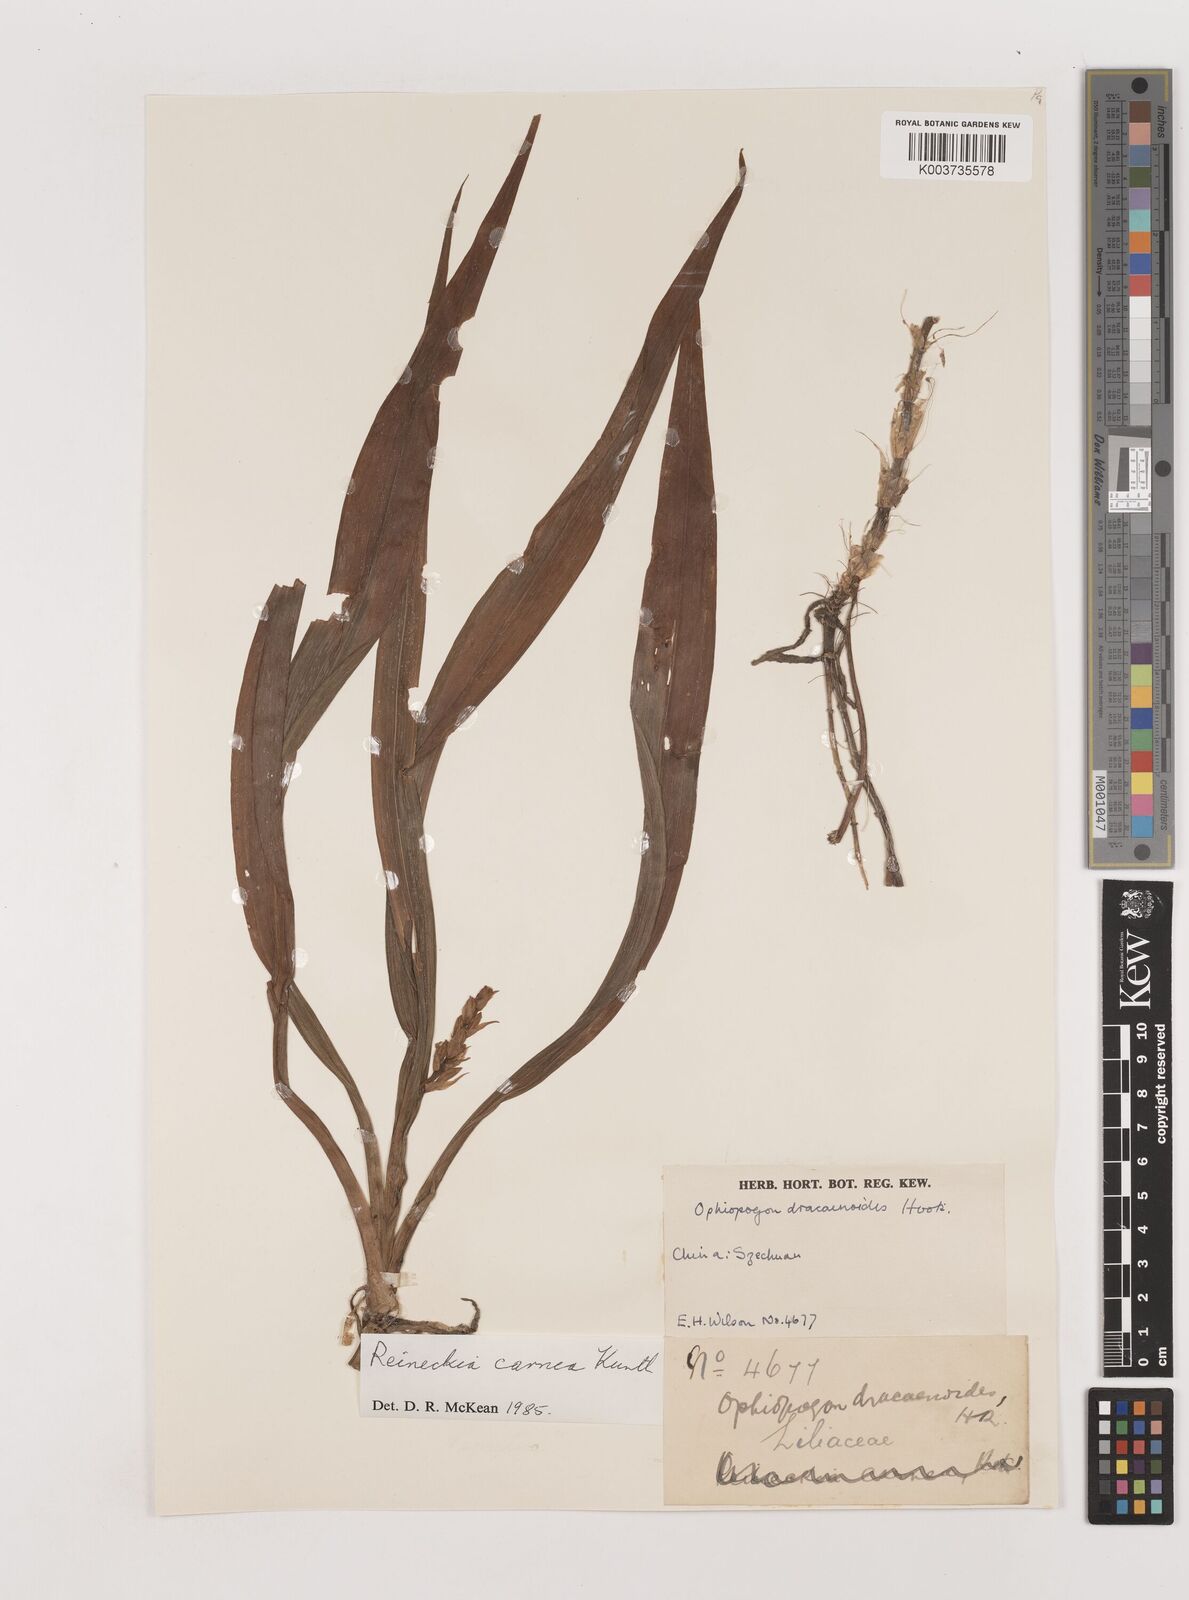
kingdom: Plantae
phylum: Tracheophyta
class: Liliopsida
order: Asparagales
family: Asparagaceae
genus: Reineckea
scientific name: Reineckea carnea
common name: Reineckea
